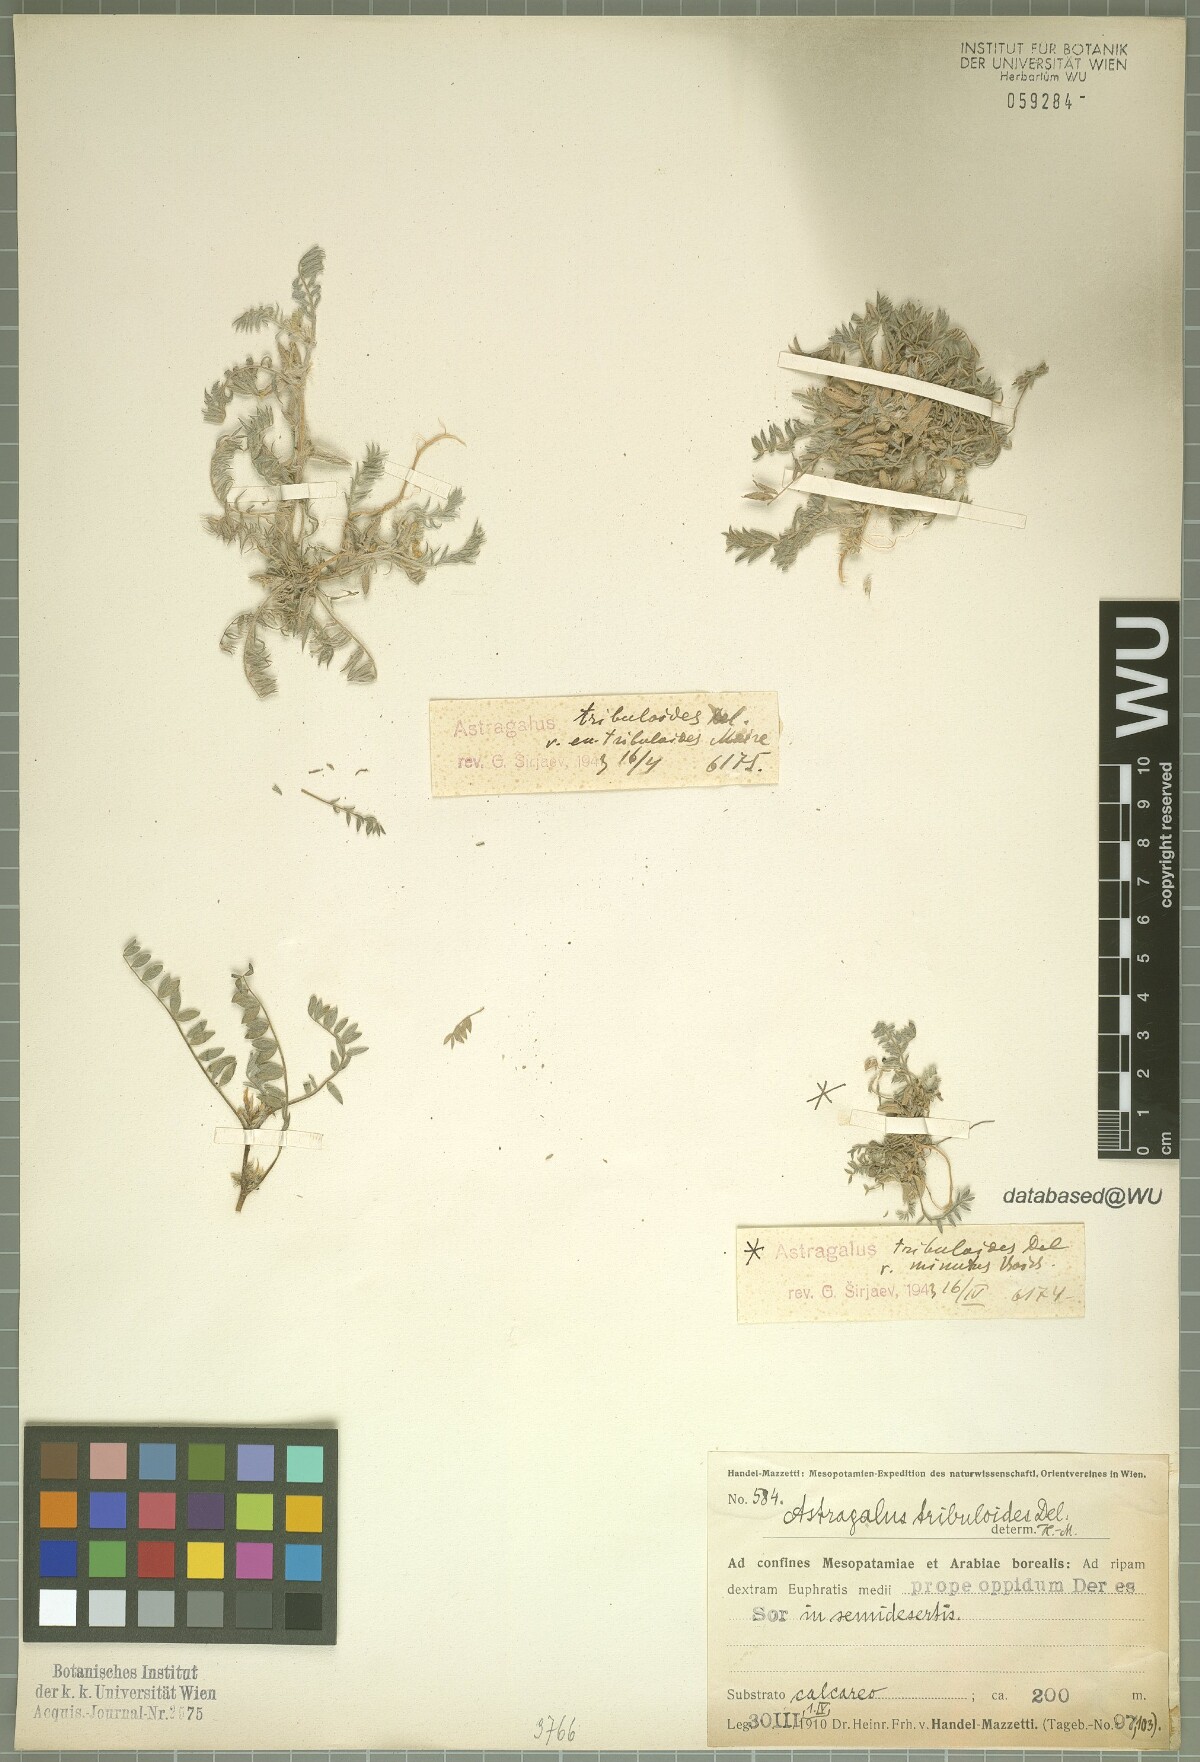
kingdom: Plantae
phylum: Tracheophyta
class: Magnoliopsida
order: Fabales
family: Fabaceae
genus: Astragalus
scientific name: Astragalus tribuloides
